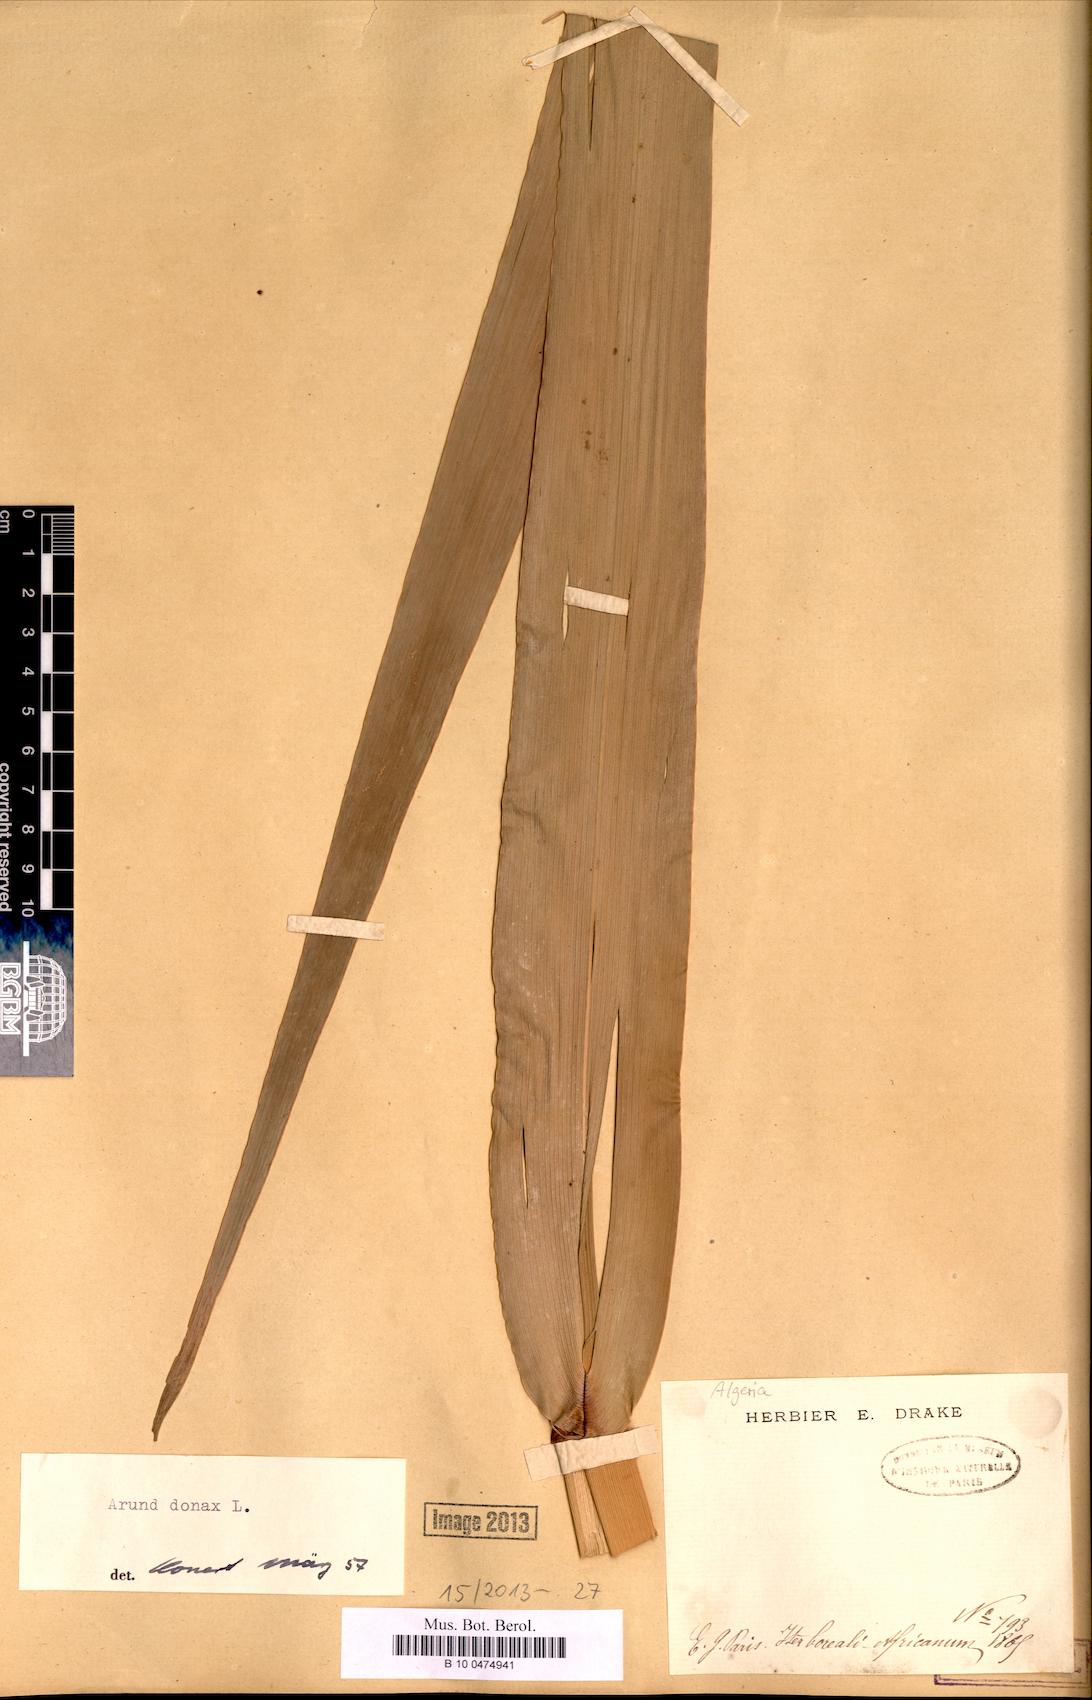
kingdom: Plantae
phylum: Tracheophyta
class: Liliopsida
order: Poales
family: Poaceae
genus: Arundo
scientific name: Arundo donax
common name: Giant reed
